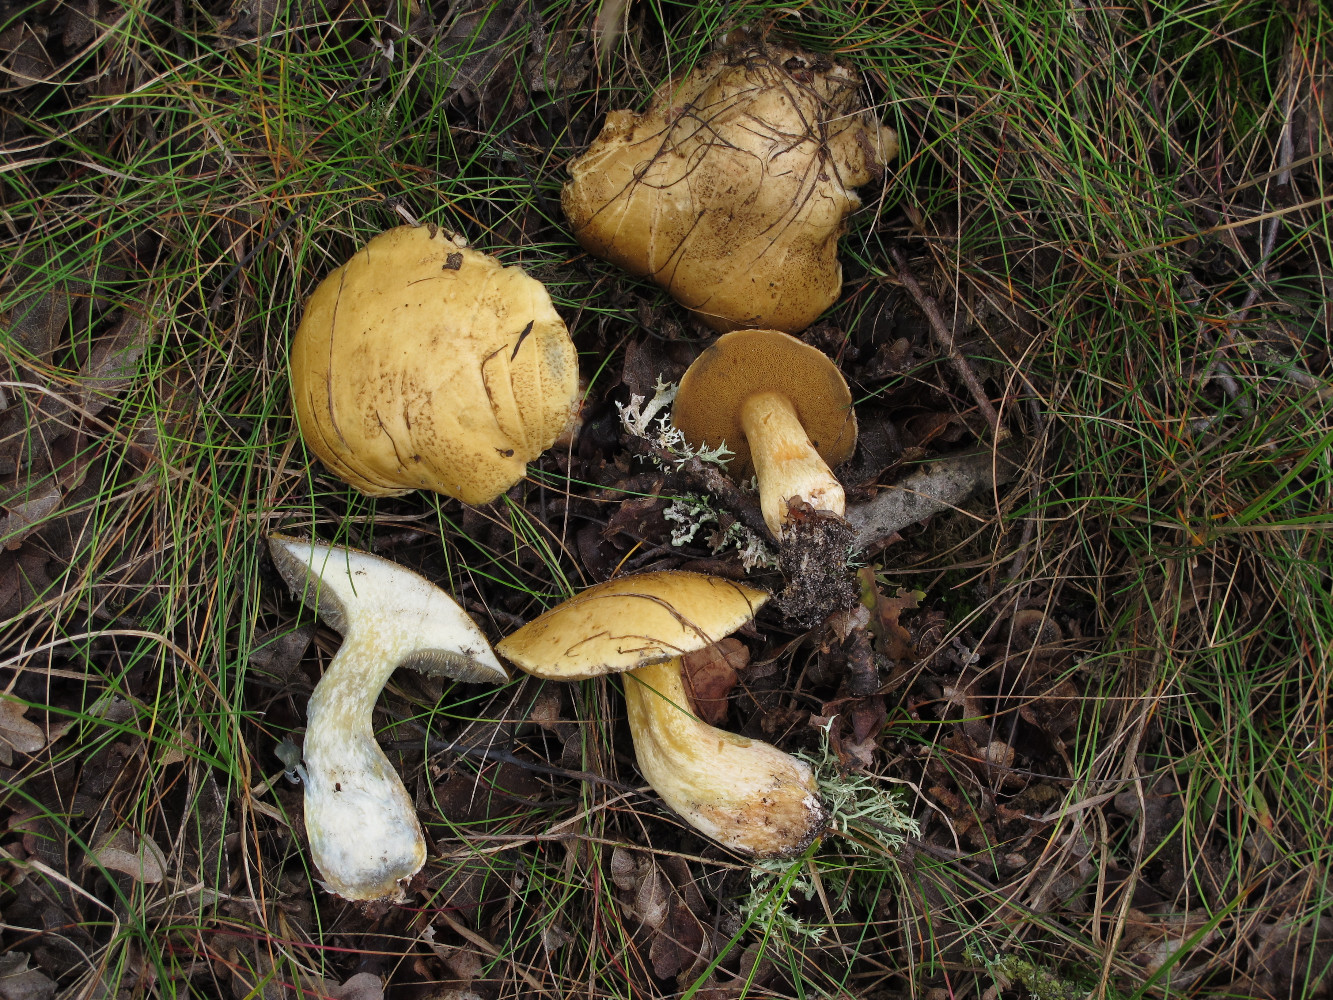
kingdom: Fungi
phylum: Basidiomycota
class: Agaricomycetes
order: Boletales
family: Suillaceae
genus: Suillus
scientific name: Suillus variegatus
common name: broget slimrørhat
